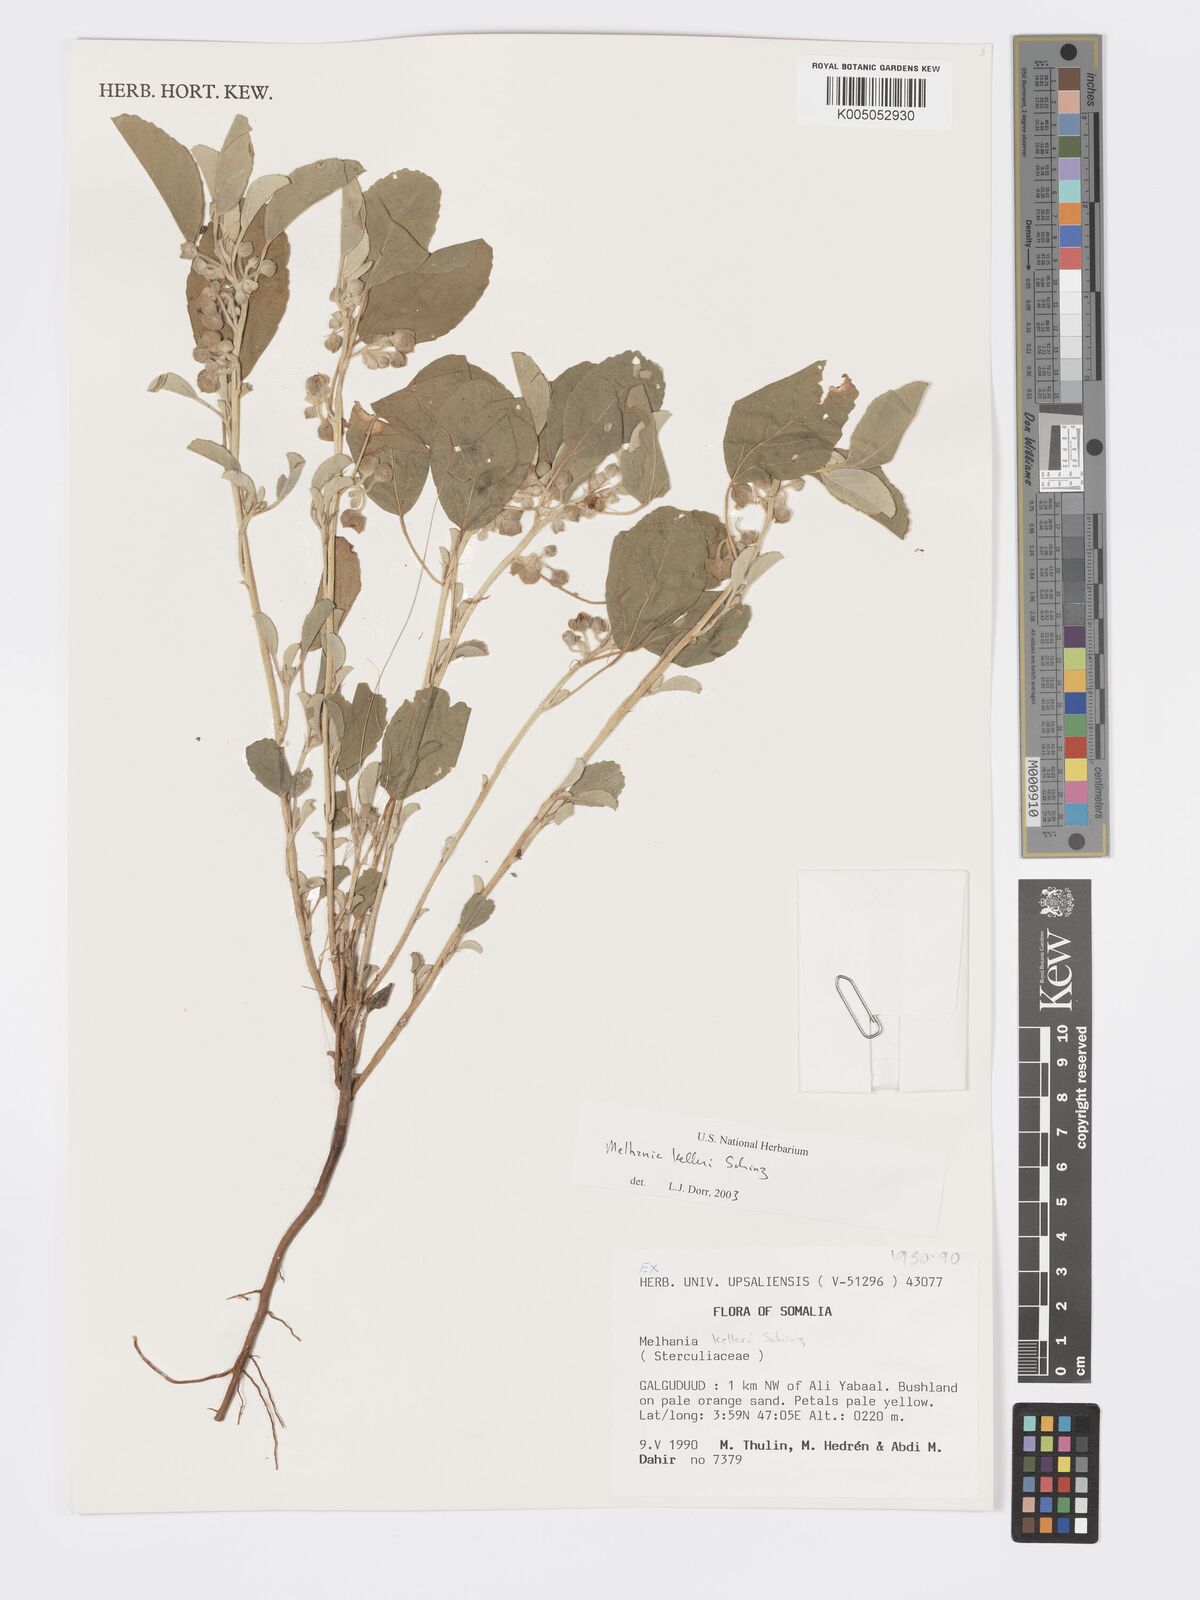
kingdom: Plantae
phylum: Tracheophyta
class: Magnoliopsida
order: Malvales
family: Malvaceae
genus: Melhania
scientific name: Melhania kelleri
